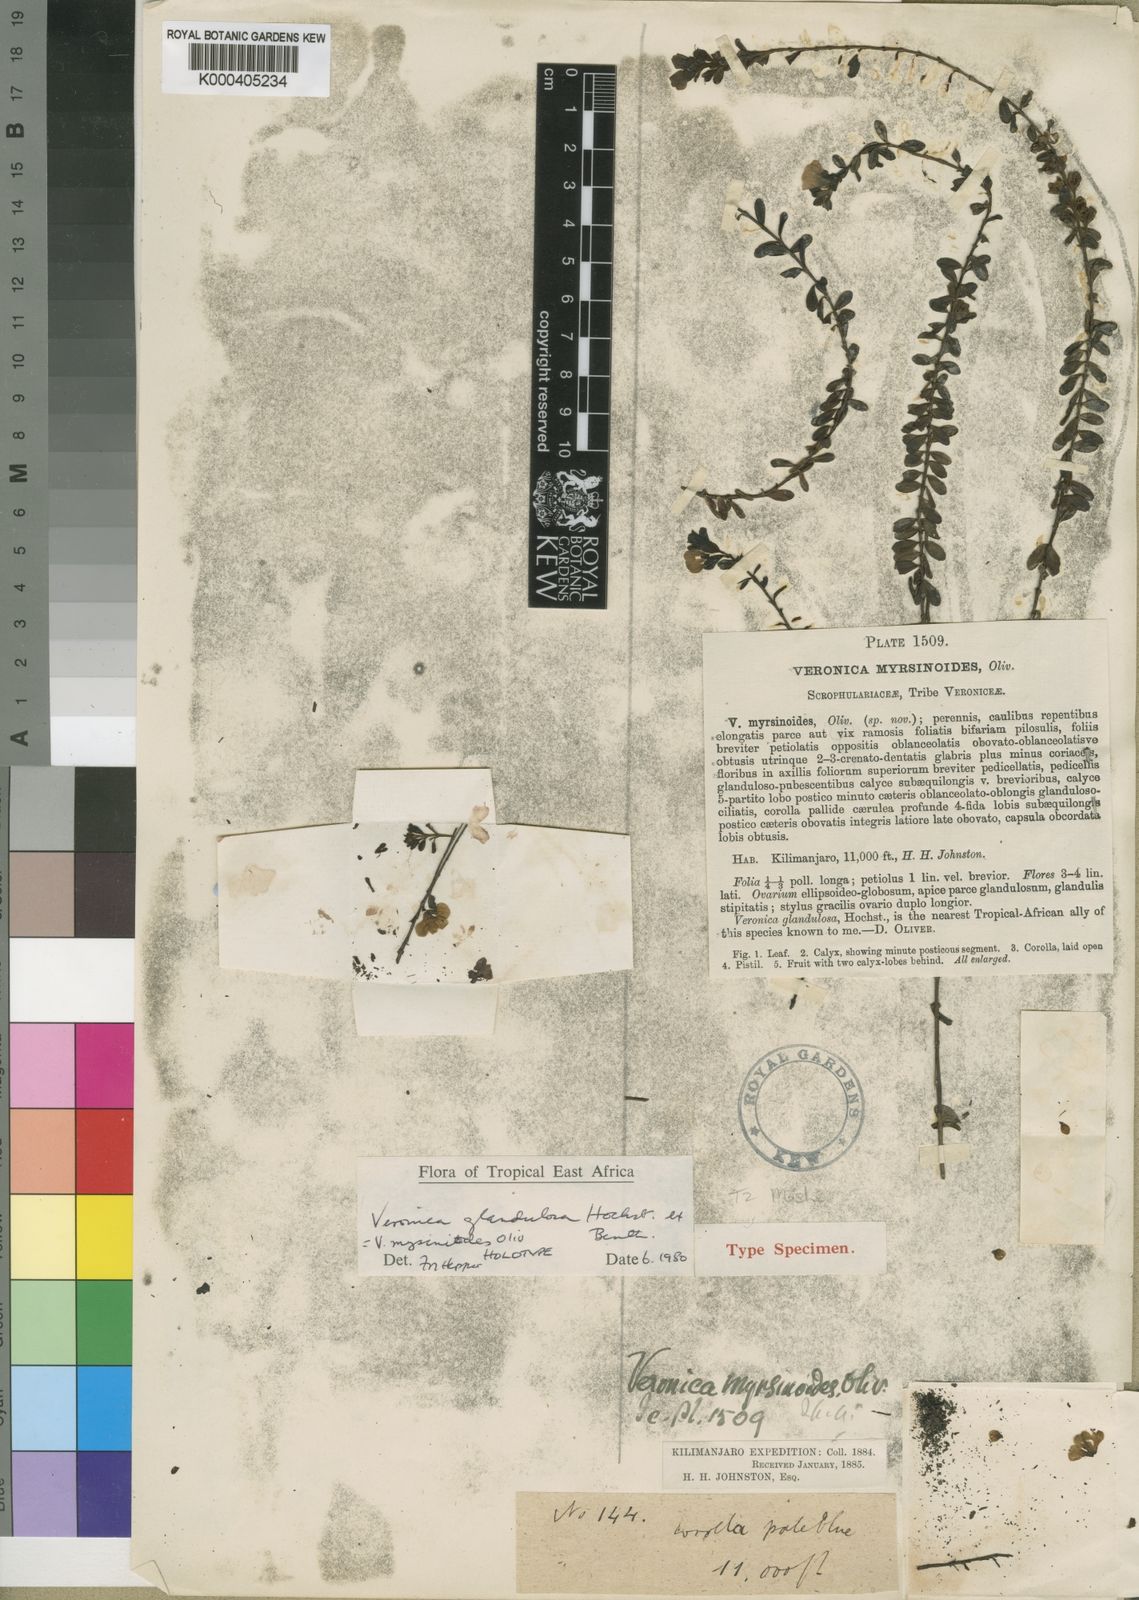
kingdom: Plantae
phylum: Tracheophyta
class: Magnoliopsida
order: Lamiales
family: Plantaginaceae
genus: Veronica
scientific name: Veronica glandulosa
